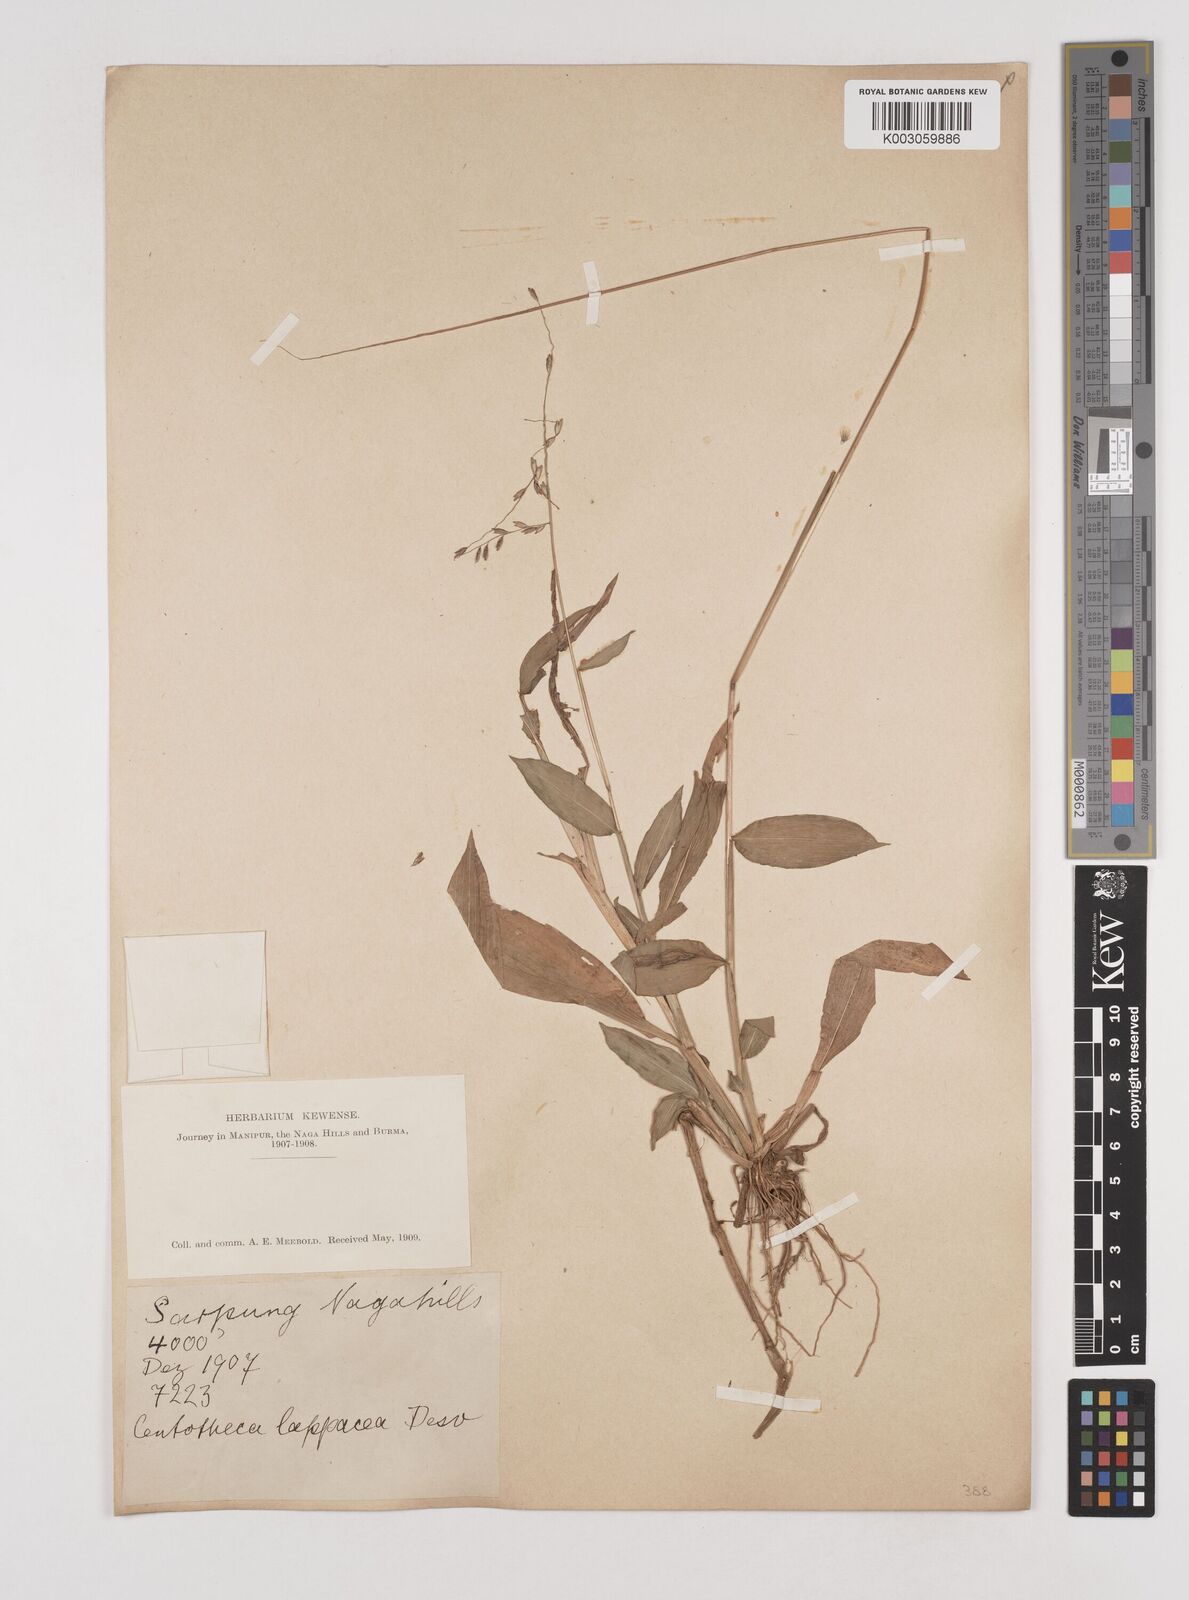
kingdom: Plantae
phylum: Tracheophyta
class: Liliopsida
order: Poales
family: Poaceae
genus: Centotheca
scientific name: Centotheca lappacea
